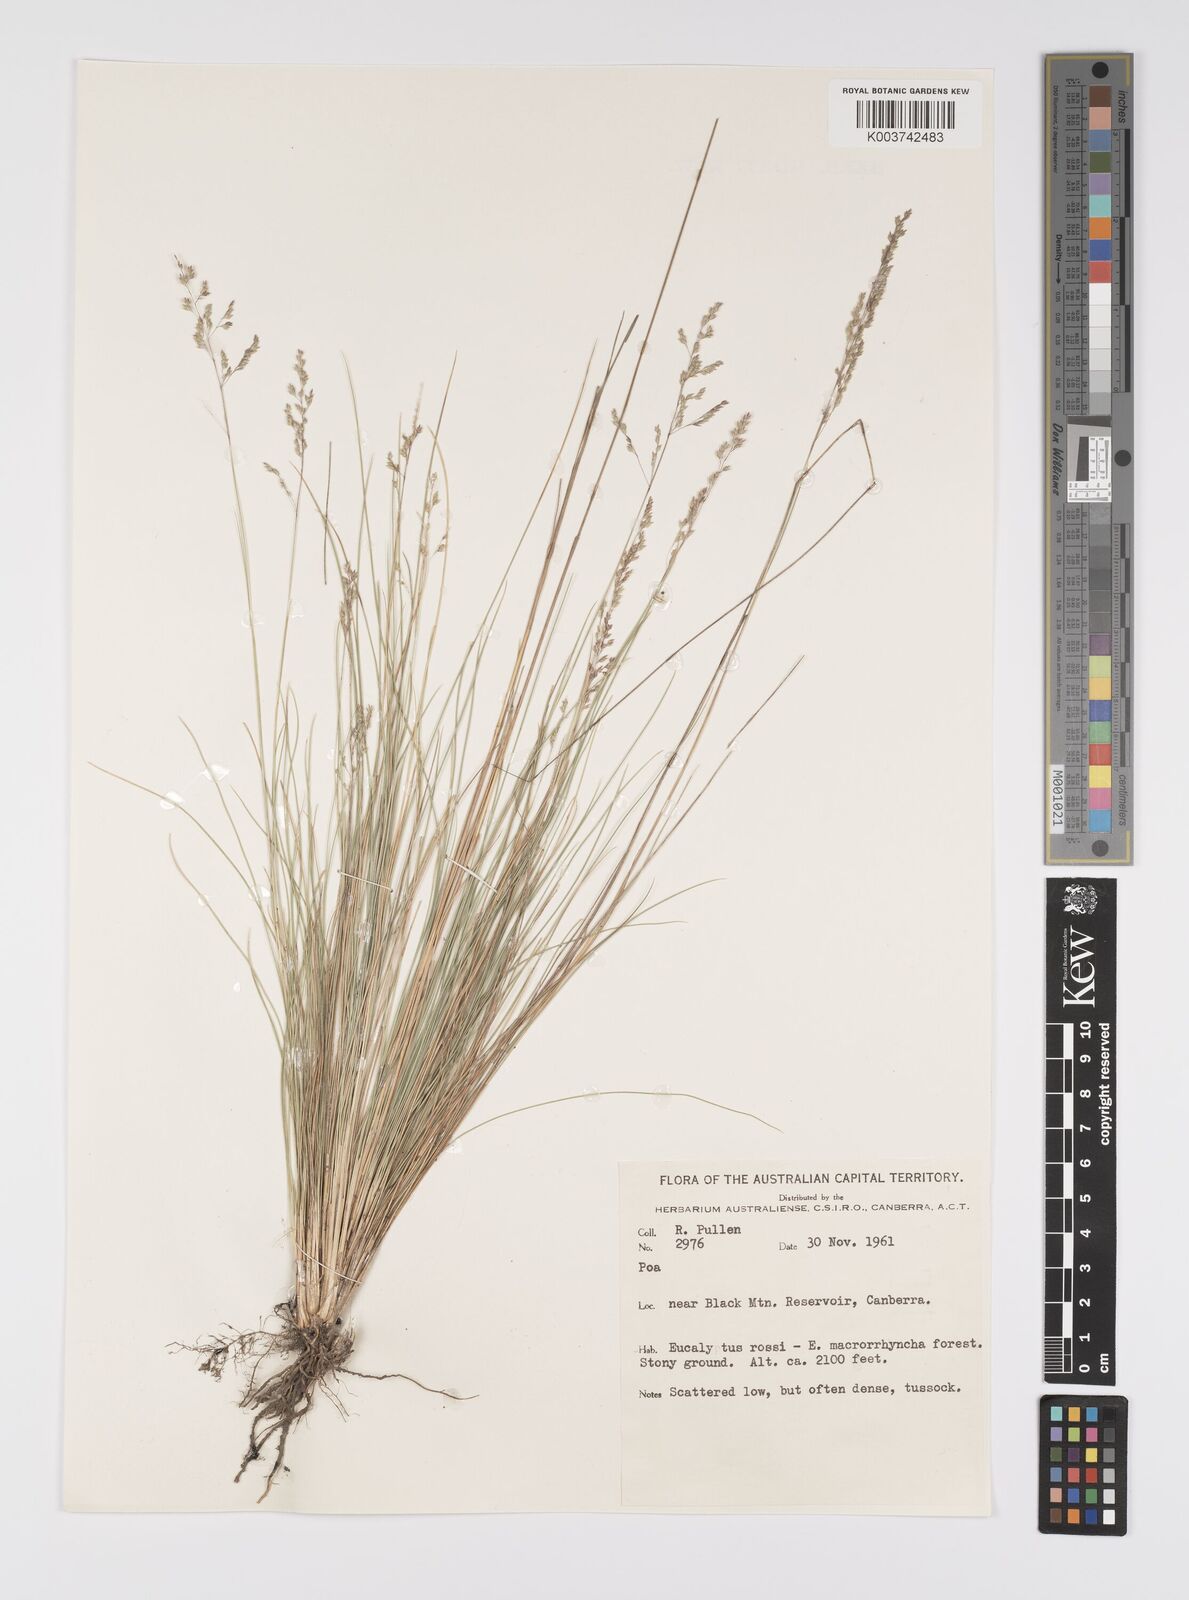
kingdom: Plantae
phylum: Tracheophyta
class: Liliopsida
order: Poales
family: Poaceae
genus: Poa
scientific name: Poa
